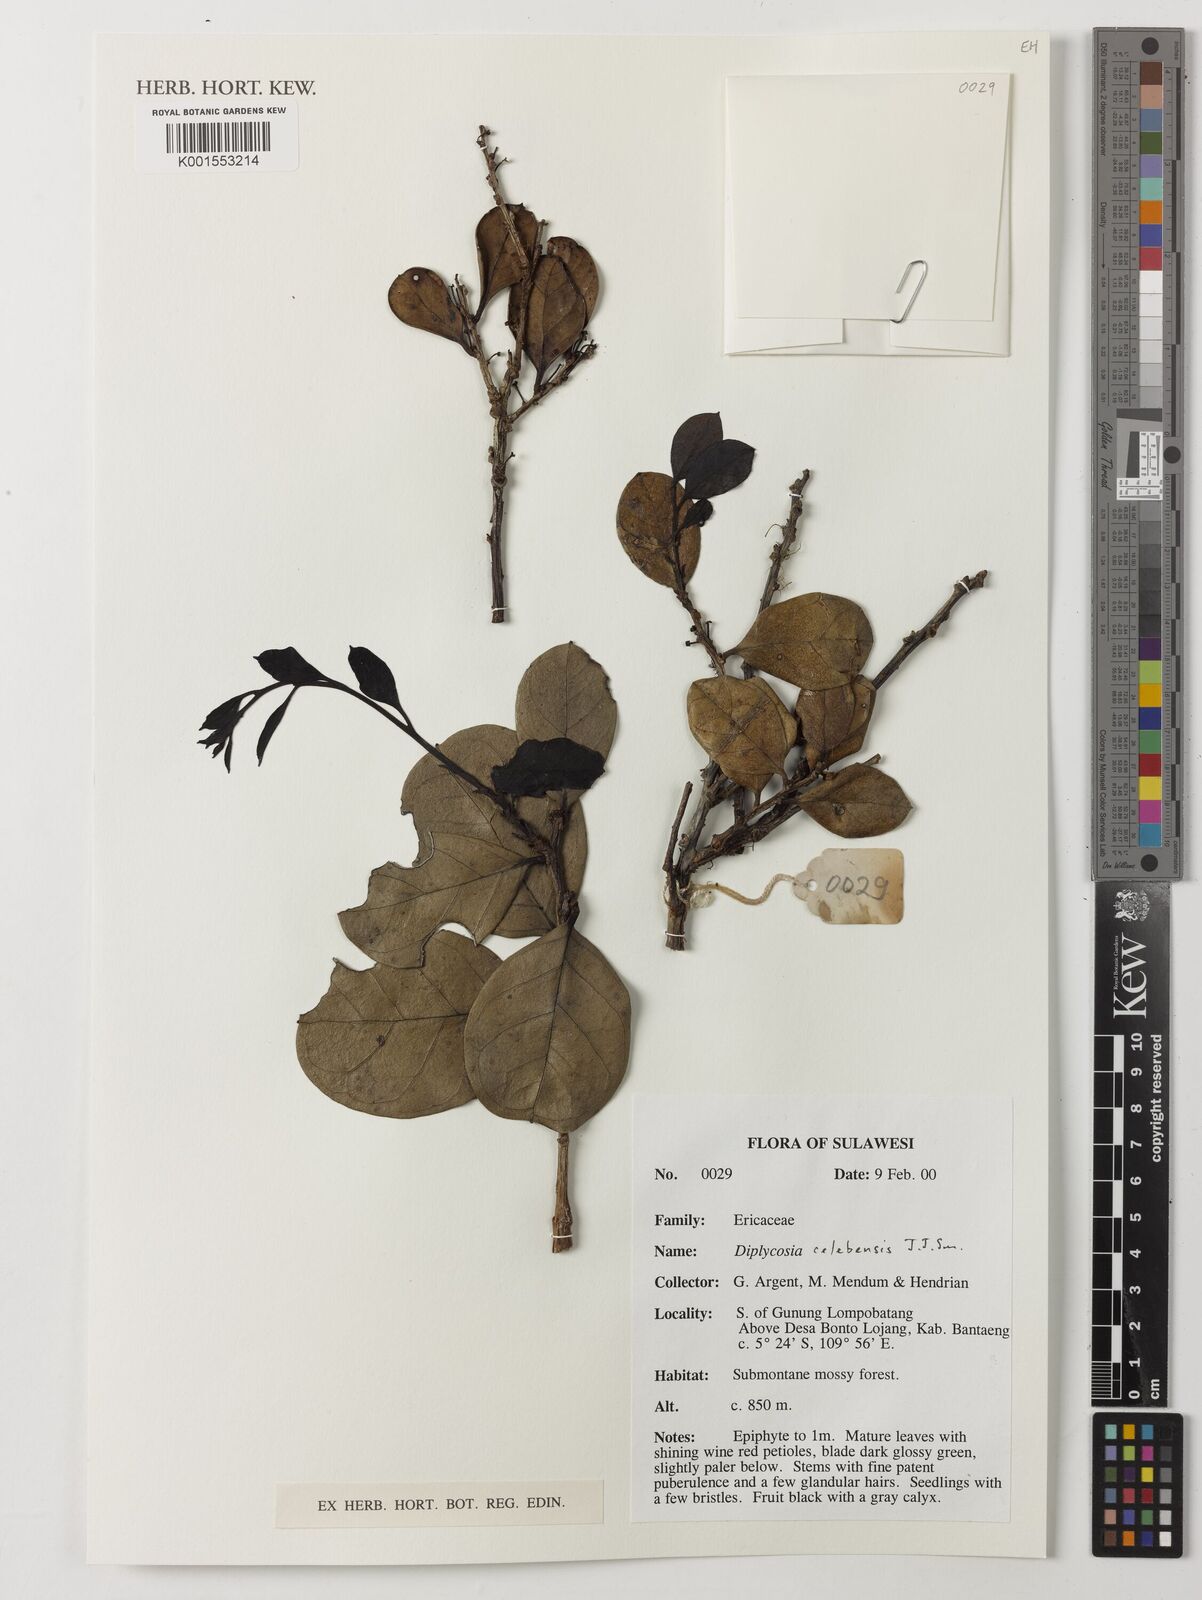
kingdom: Plantae
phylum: Tracheophyta
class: Magnoliopsida
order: Ericales
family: Ericaceae
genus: Gaultheria
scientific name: Gaultheria celebensis
